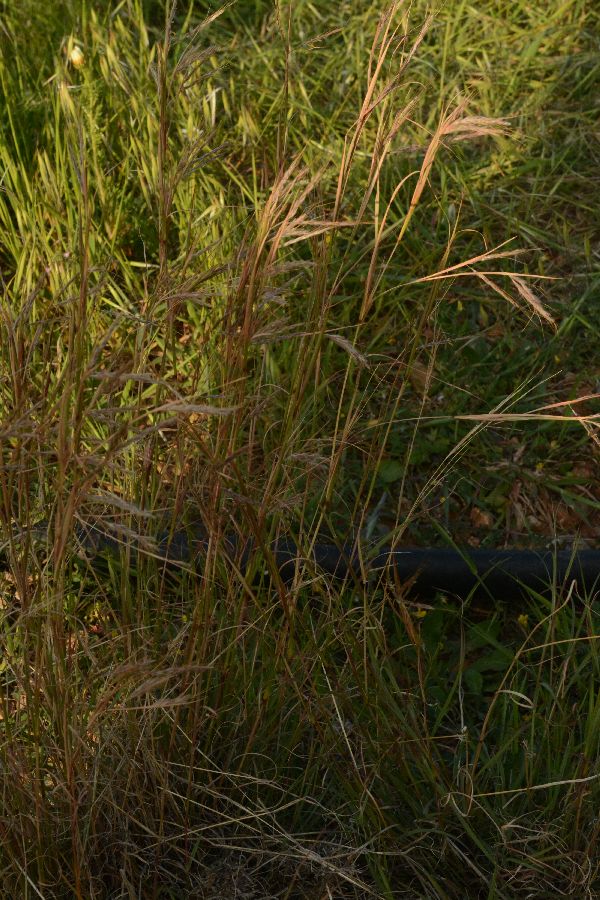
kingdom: Plantae
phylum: Tracheophyta
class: Liliopsida
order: Poales
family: Poaceae
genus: Andropogon
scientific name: Andropogon distachyos
